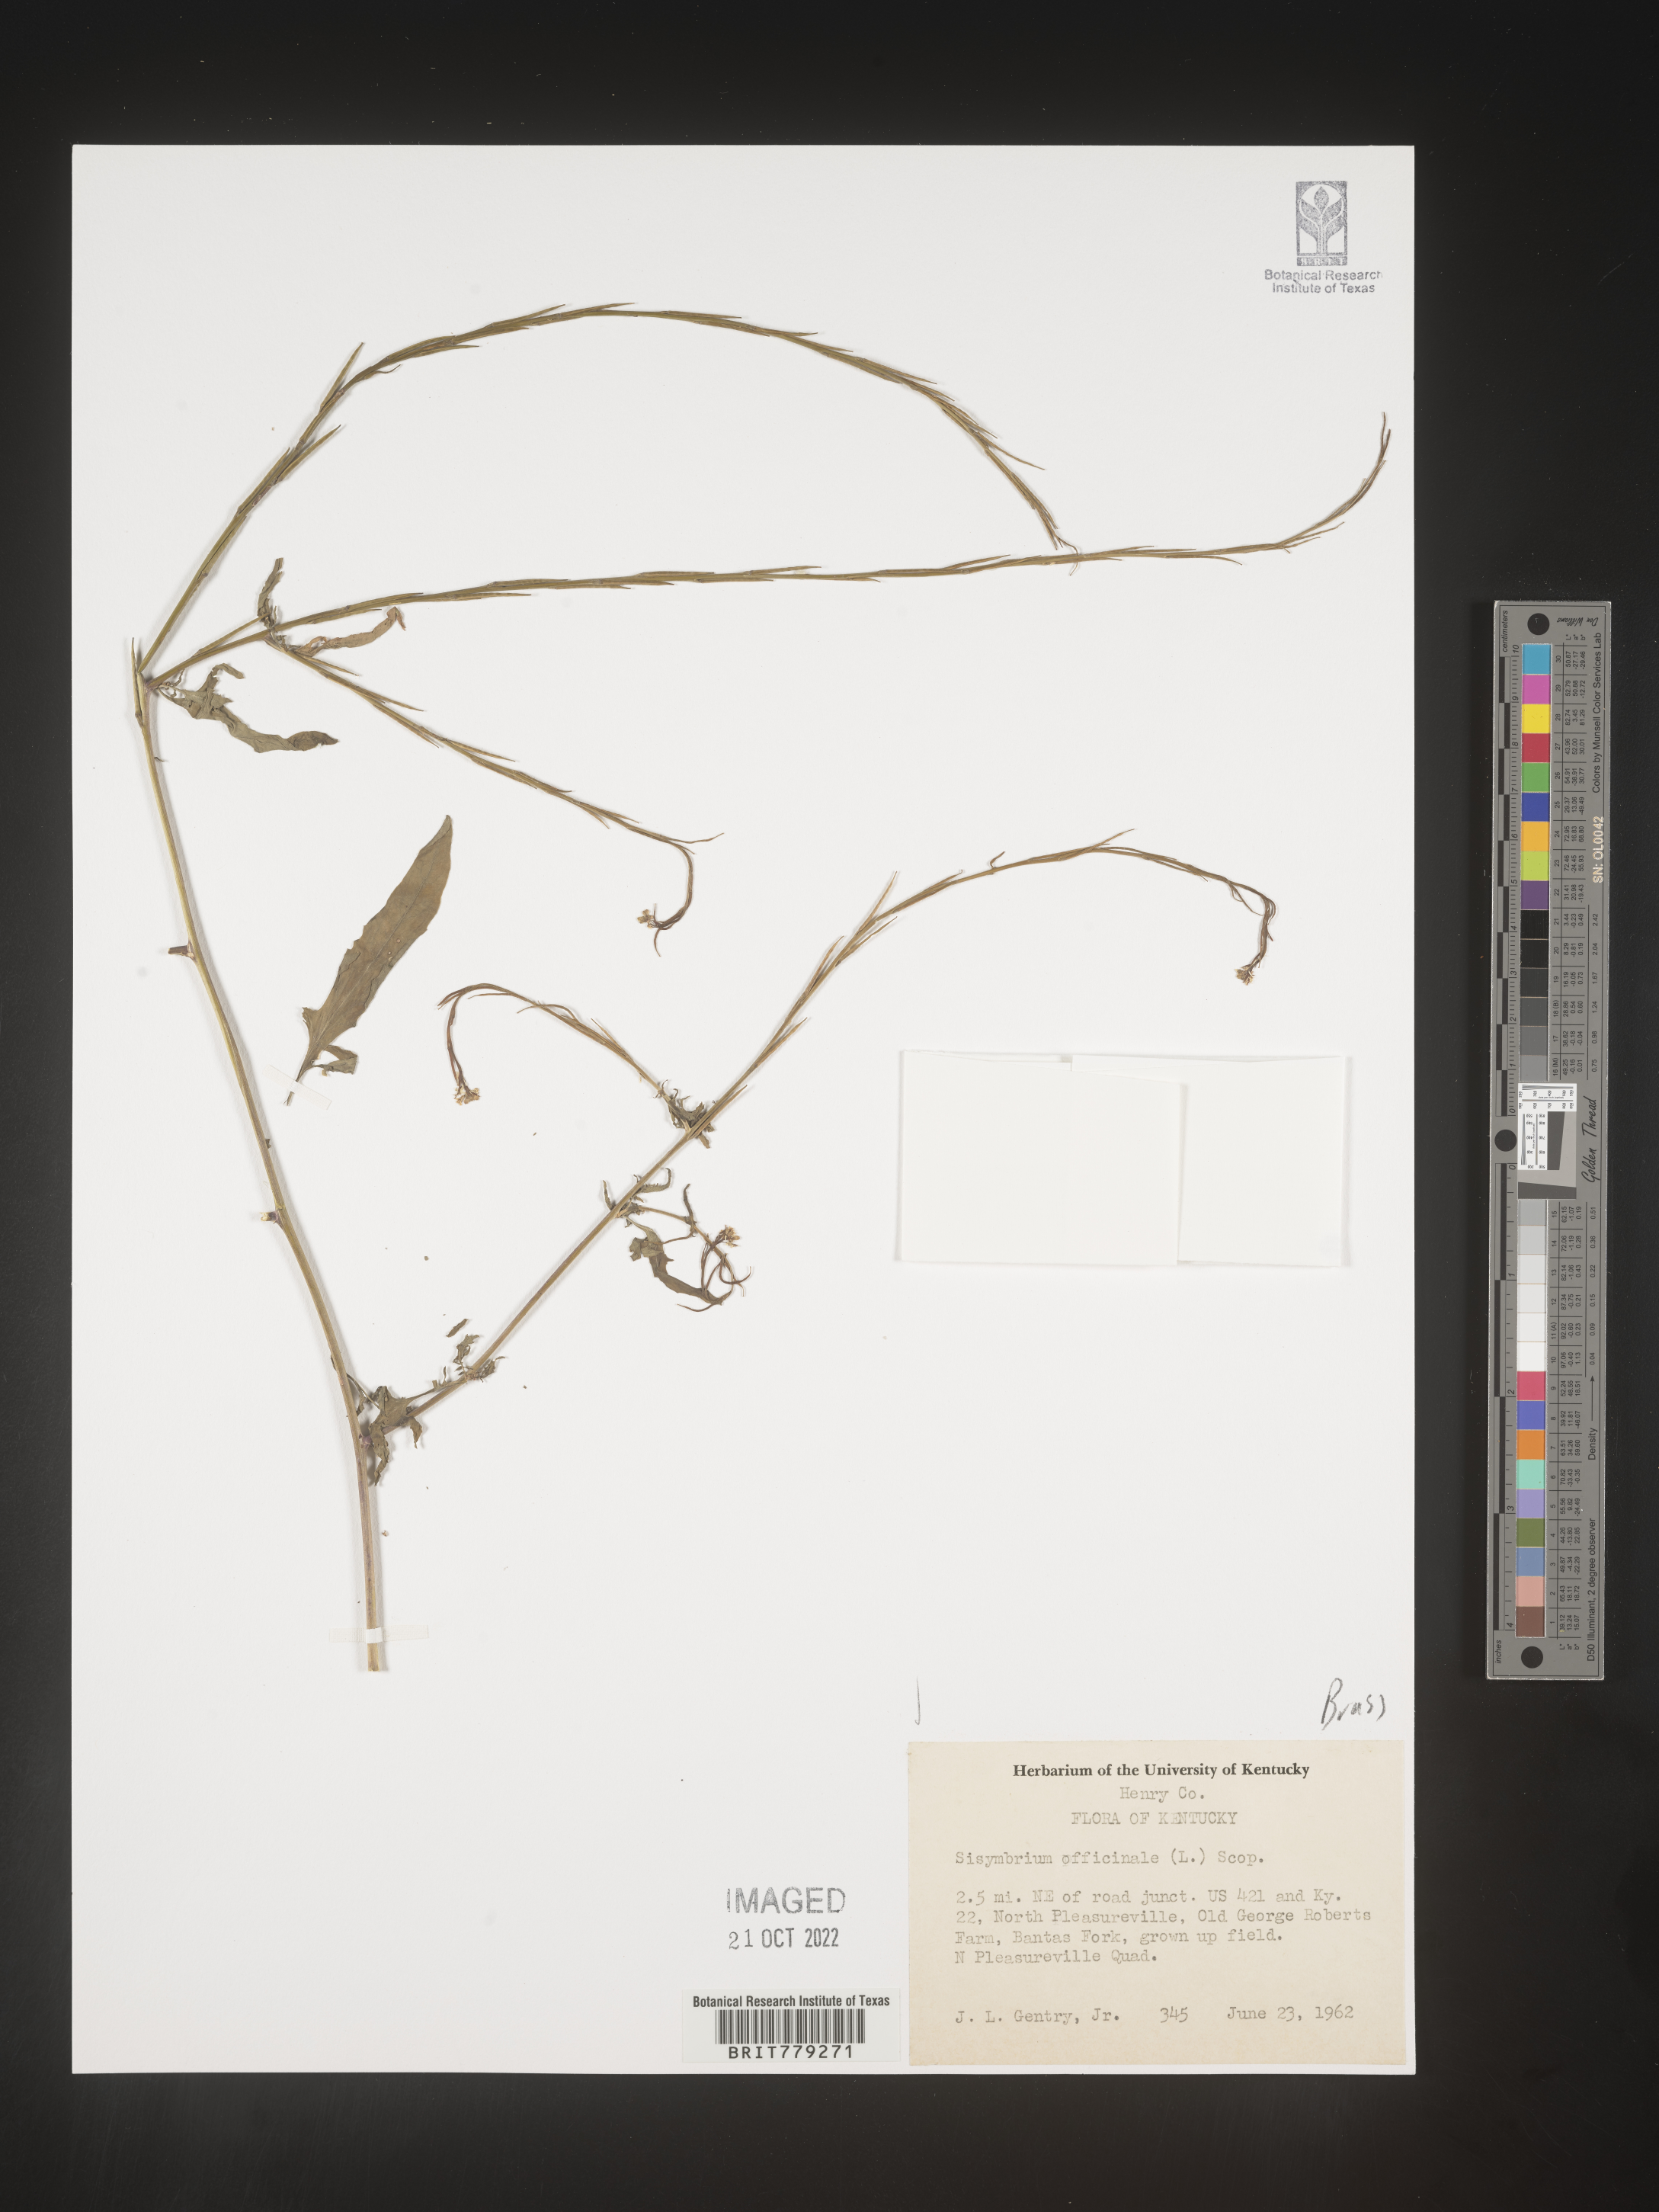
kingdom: Plantae
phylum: Tracheophyta
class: Magnoliopsida
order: Brassicales
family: Brassicaceae
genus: Sisymbrium
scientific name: Sisymbrium officinale
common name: Hedge mustard
